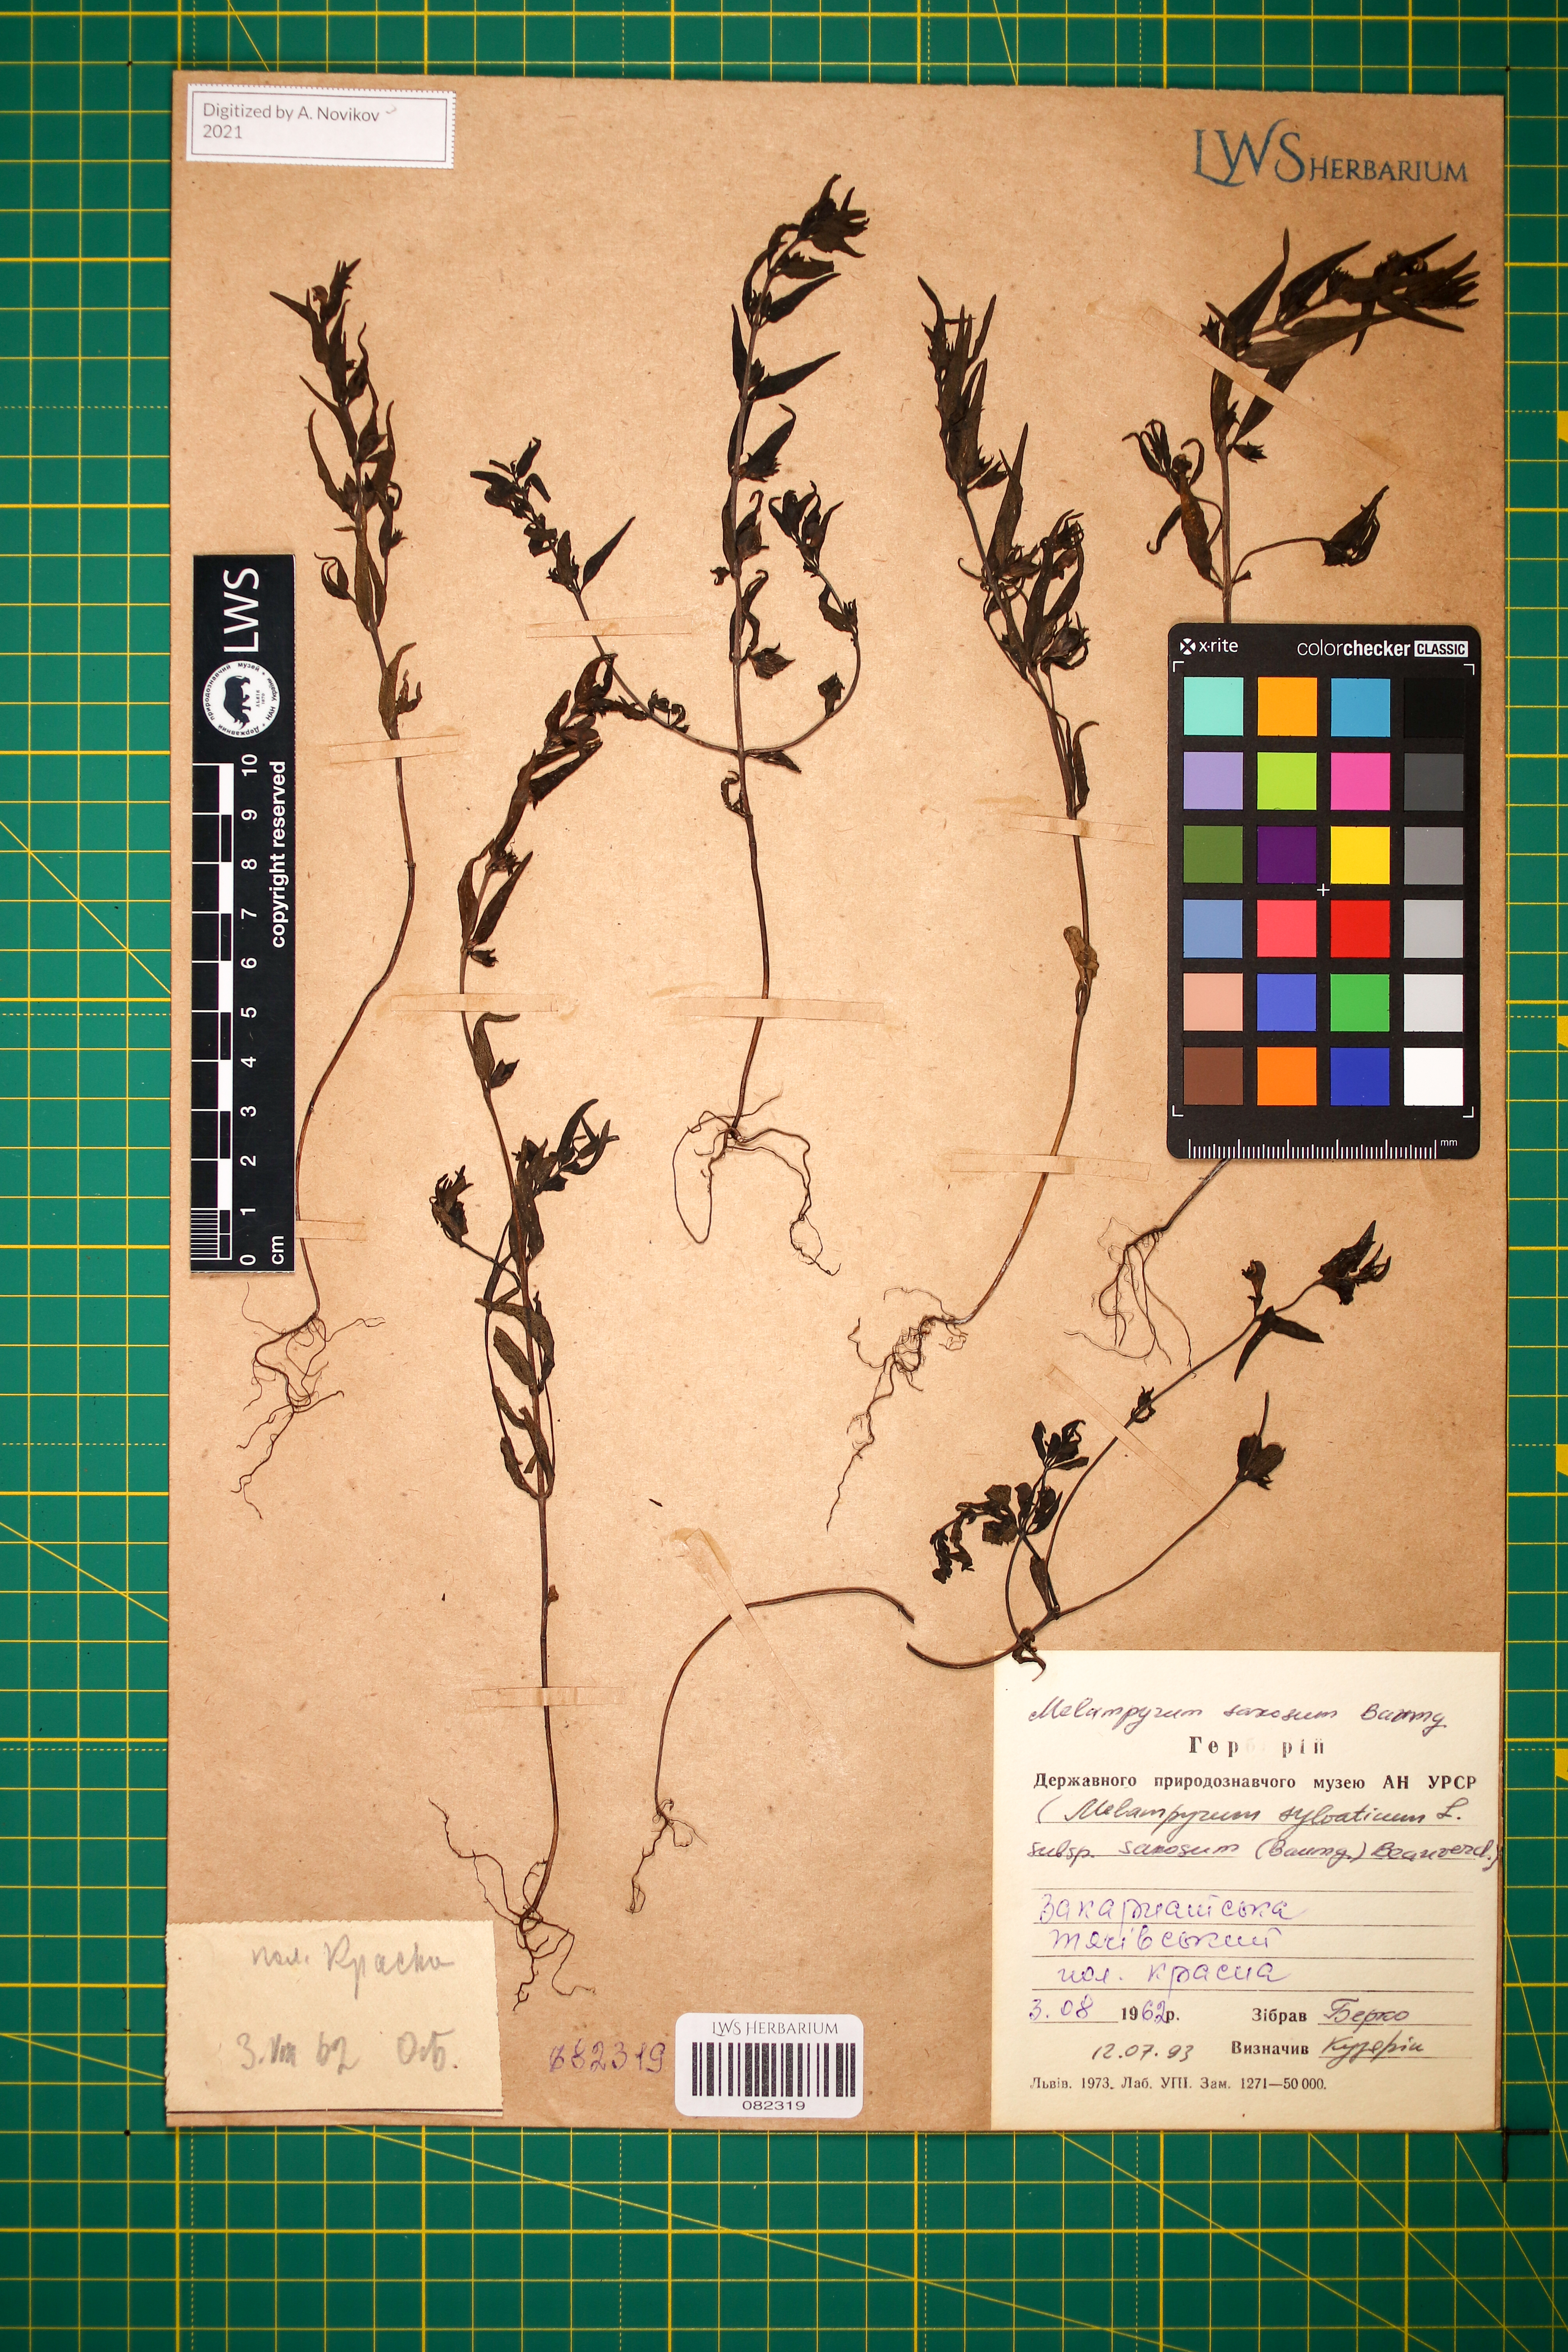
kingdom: Plantae
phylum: Tracheophyta
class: Magnoliopsida
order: Lamiales
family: Orobanchaceae
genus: Melampyrum
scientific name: Melampyrum saxosum
